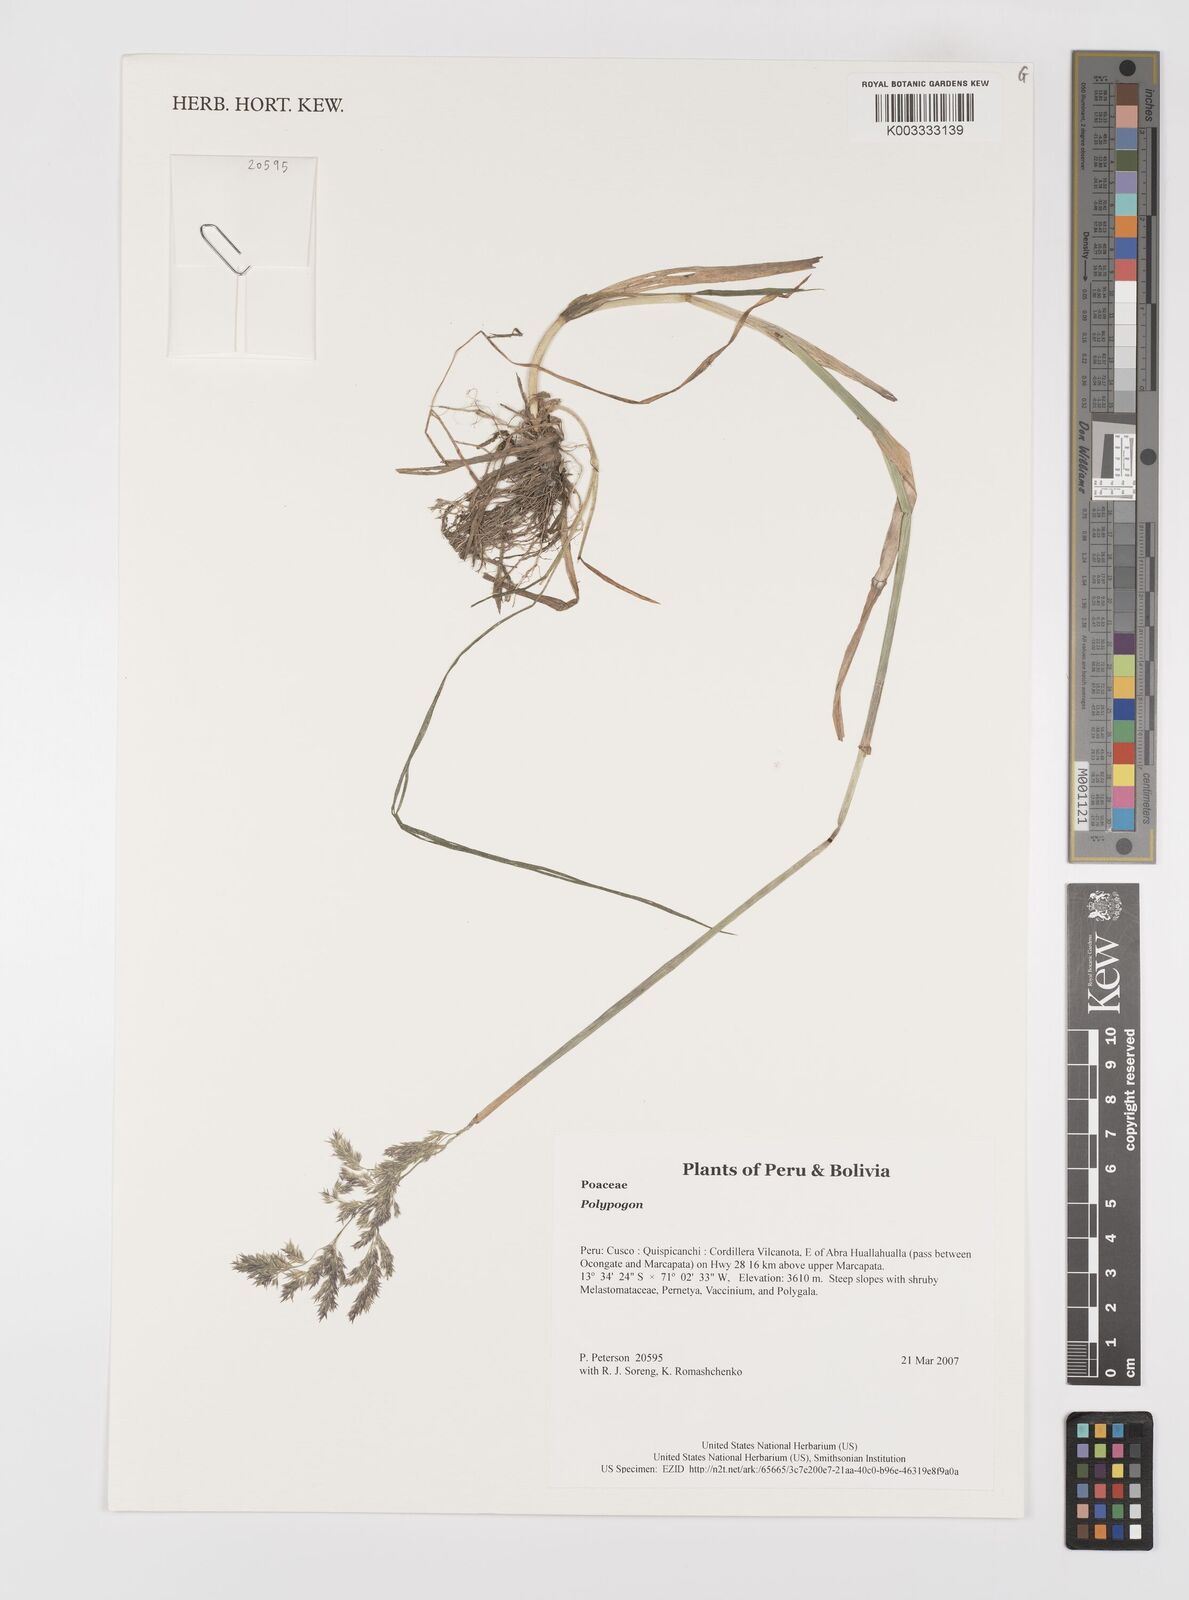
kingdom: Plantae
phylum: Tracheophyta
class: Liliopsida
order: Poales
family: Poaceae
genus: Polypogon
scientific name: Polypogon
